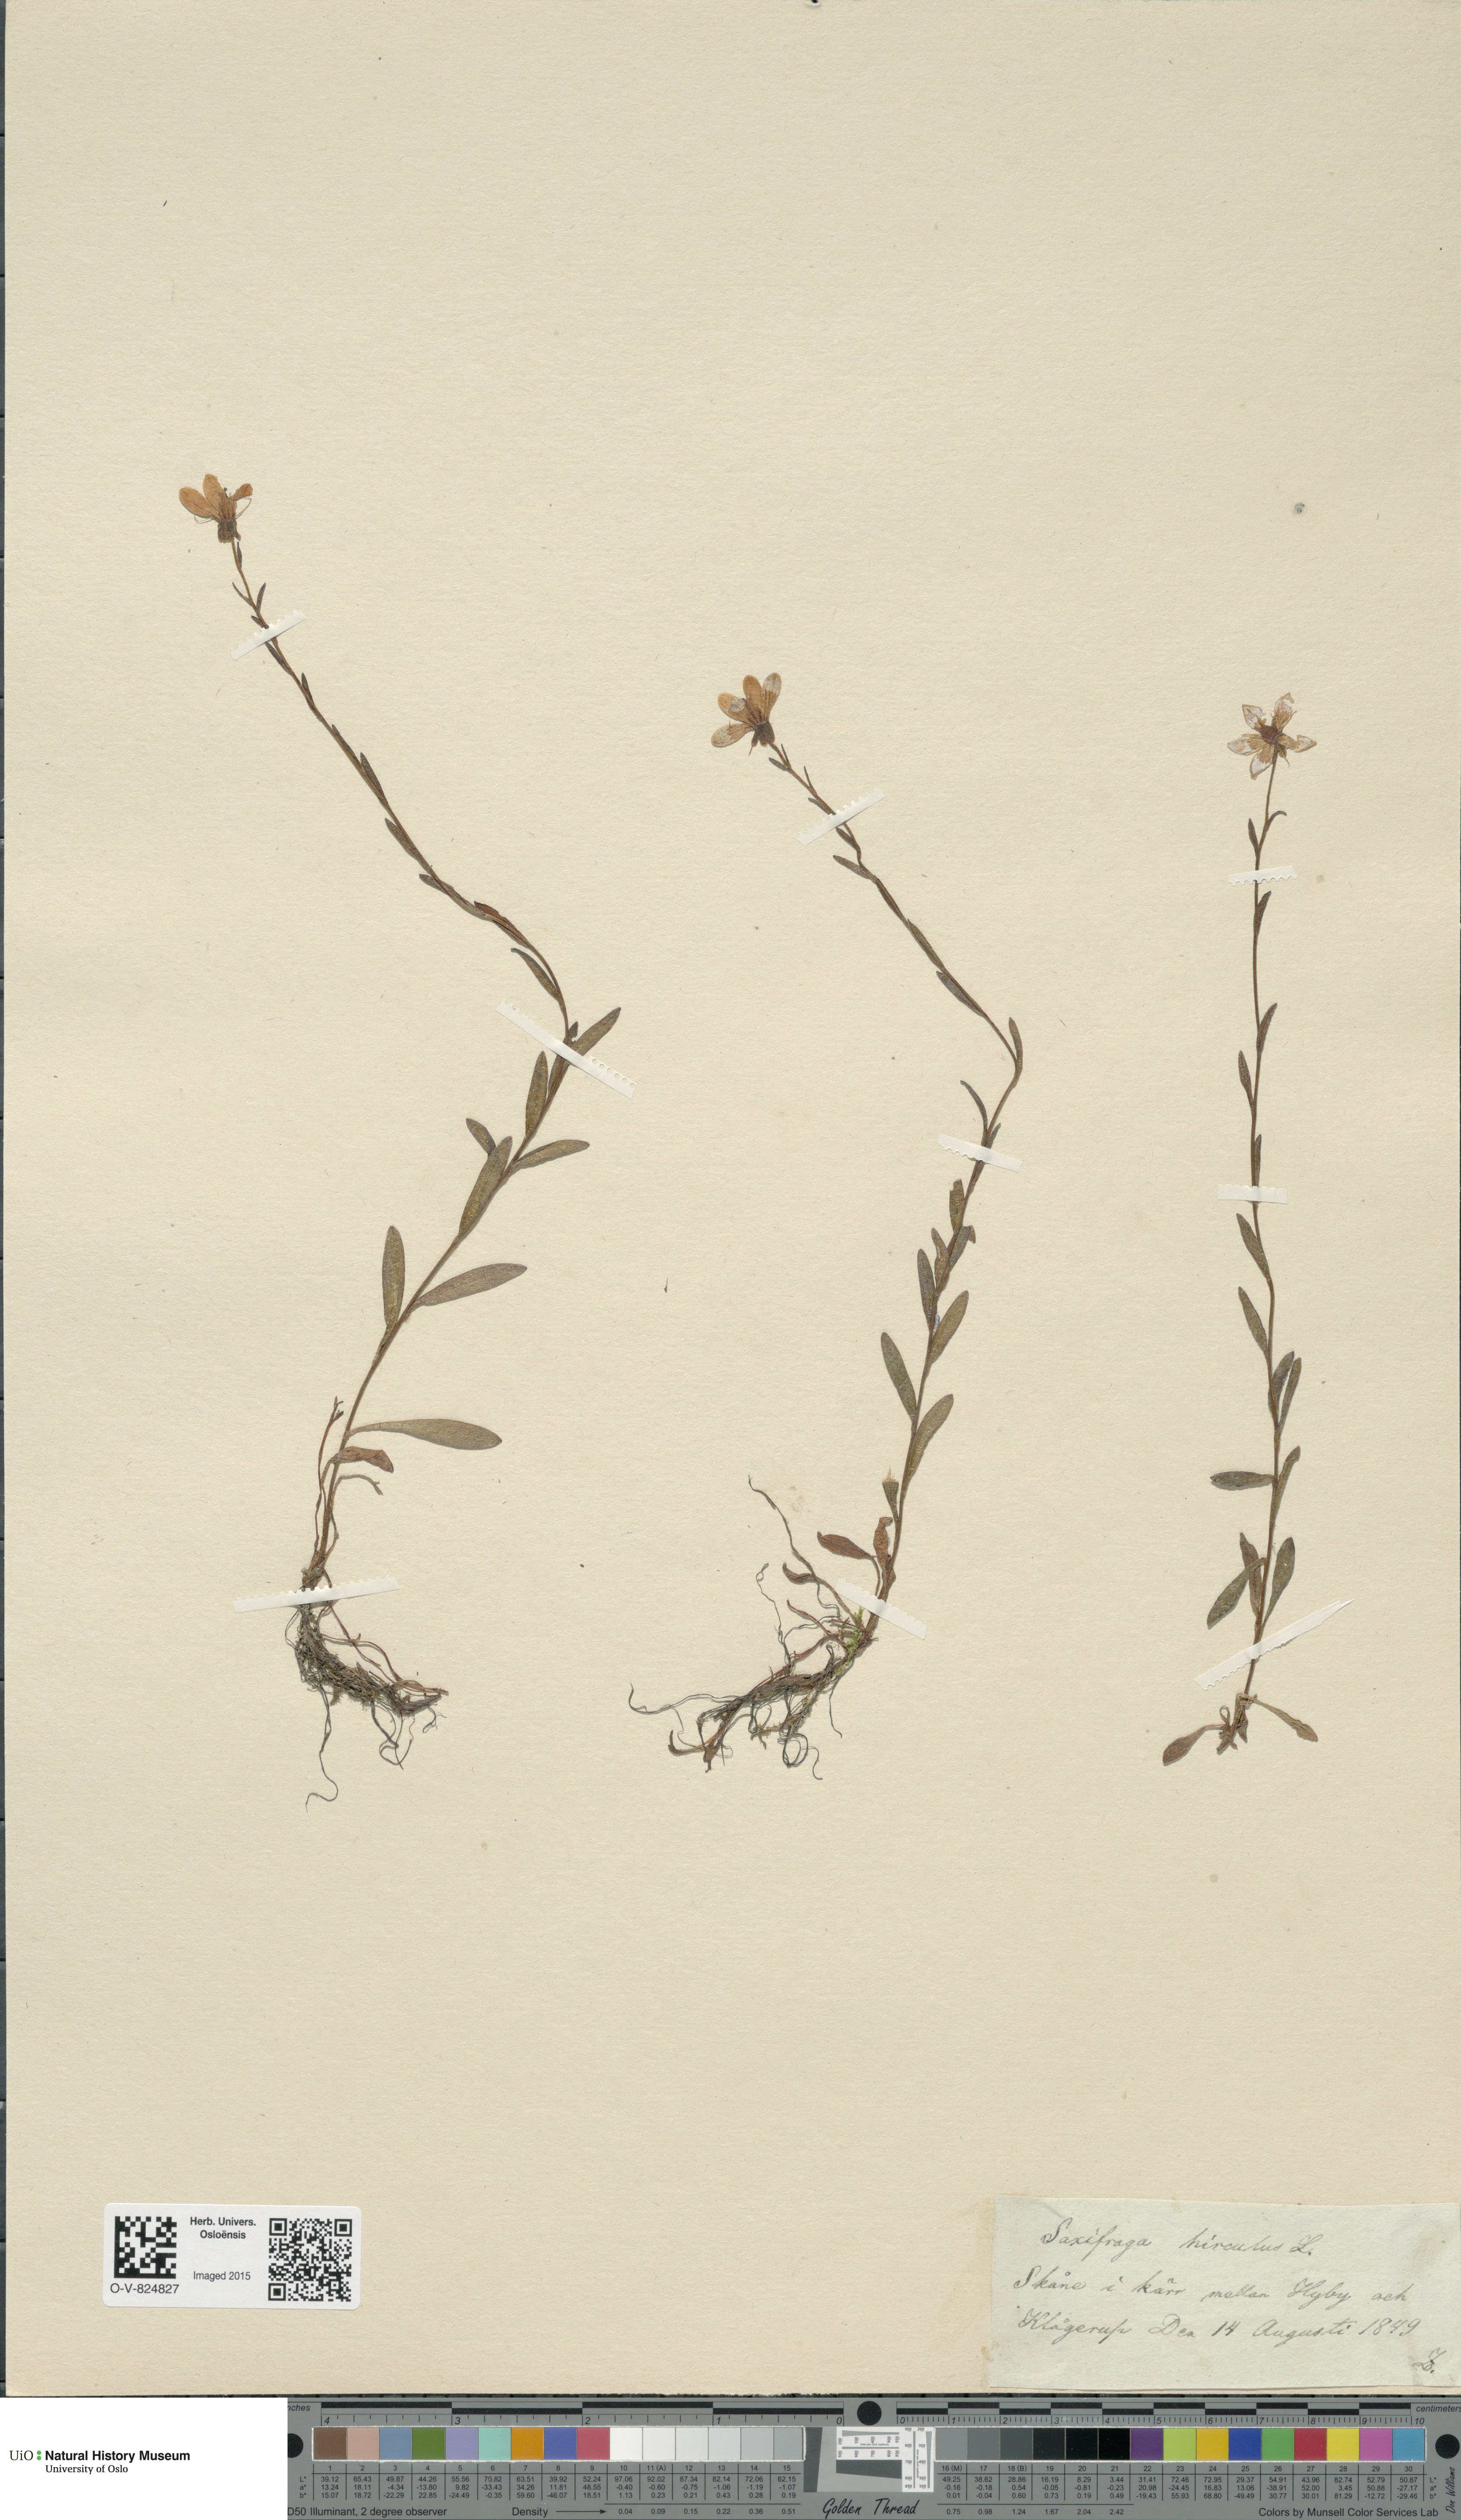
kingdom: Plantae
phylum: Tracheophyta
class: Magnoliopsida
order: Saxifragales
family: Saxifragaceae
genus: Saxifraga
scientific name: Saxifraga hirculus
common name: Yellow marsh saxifrage
